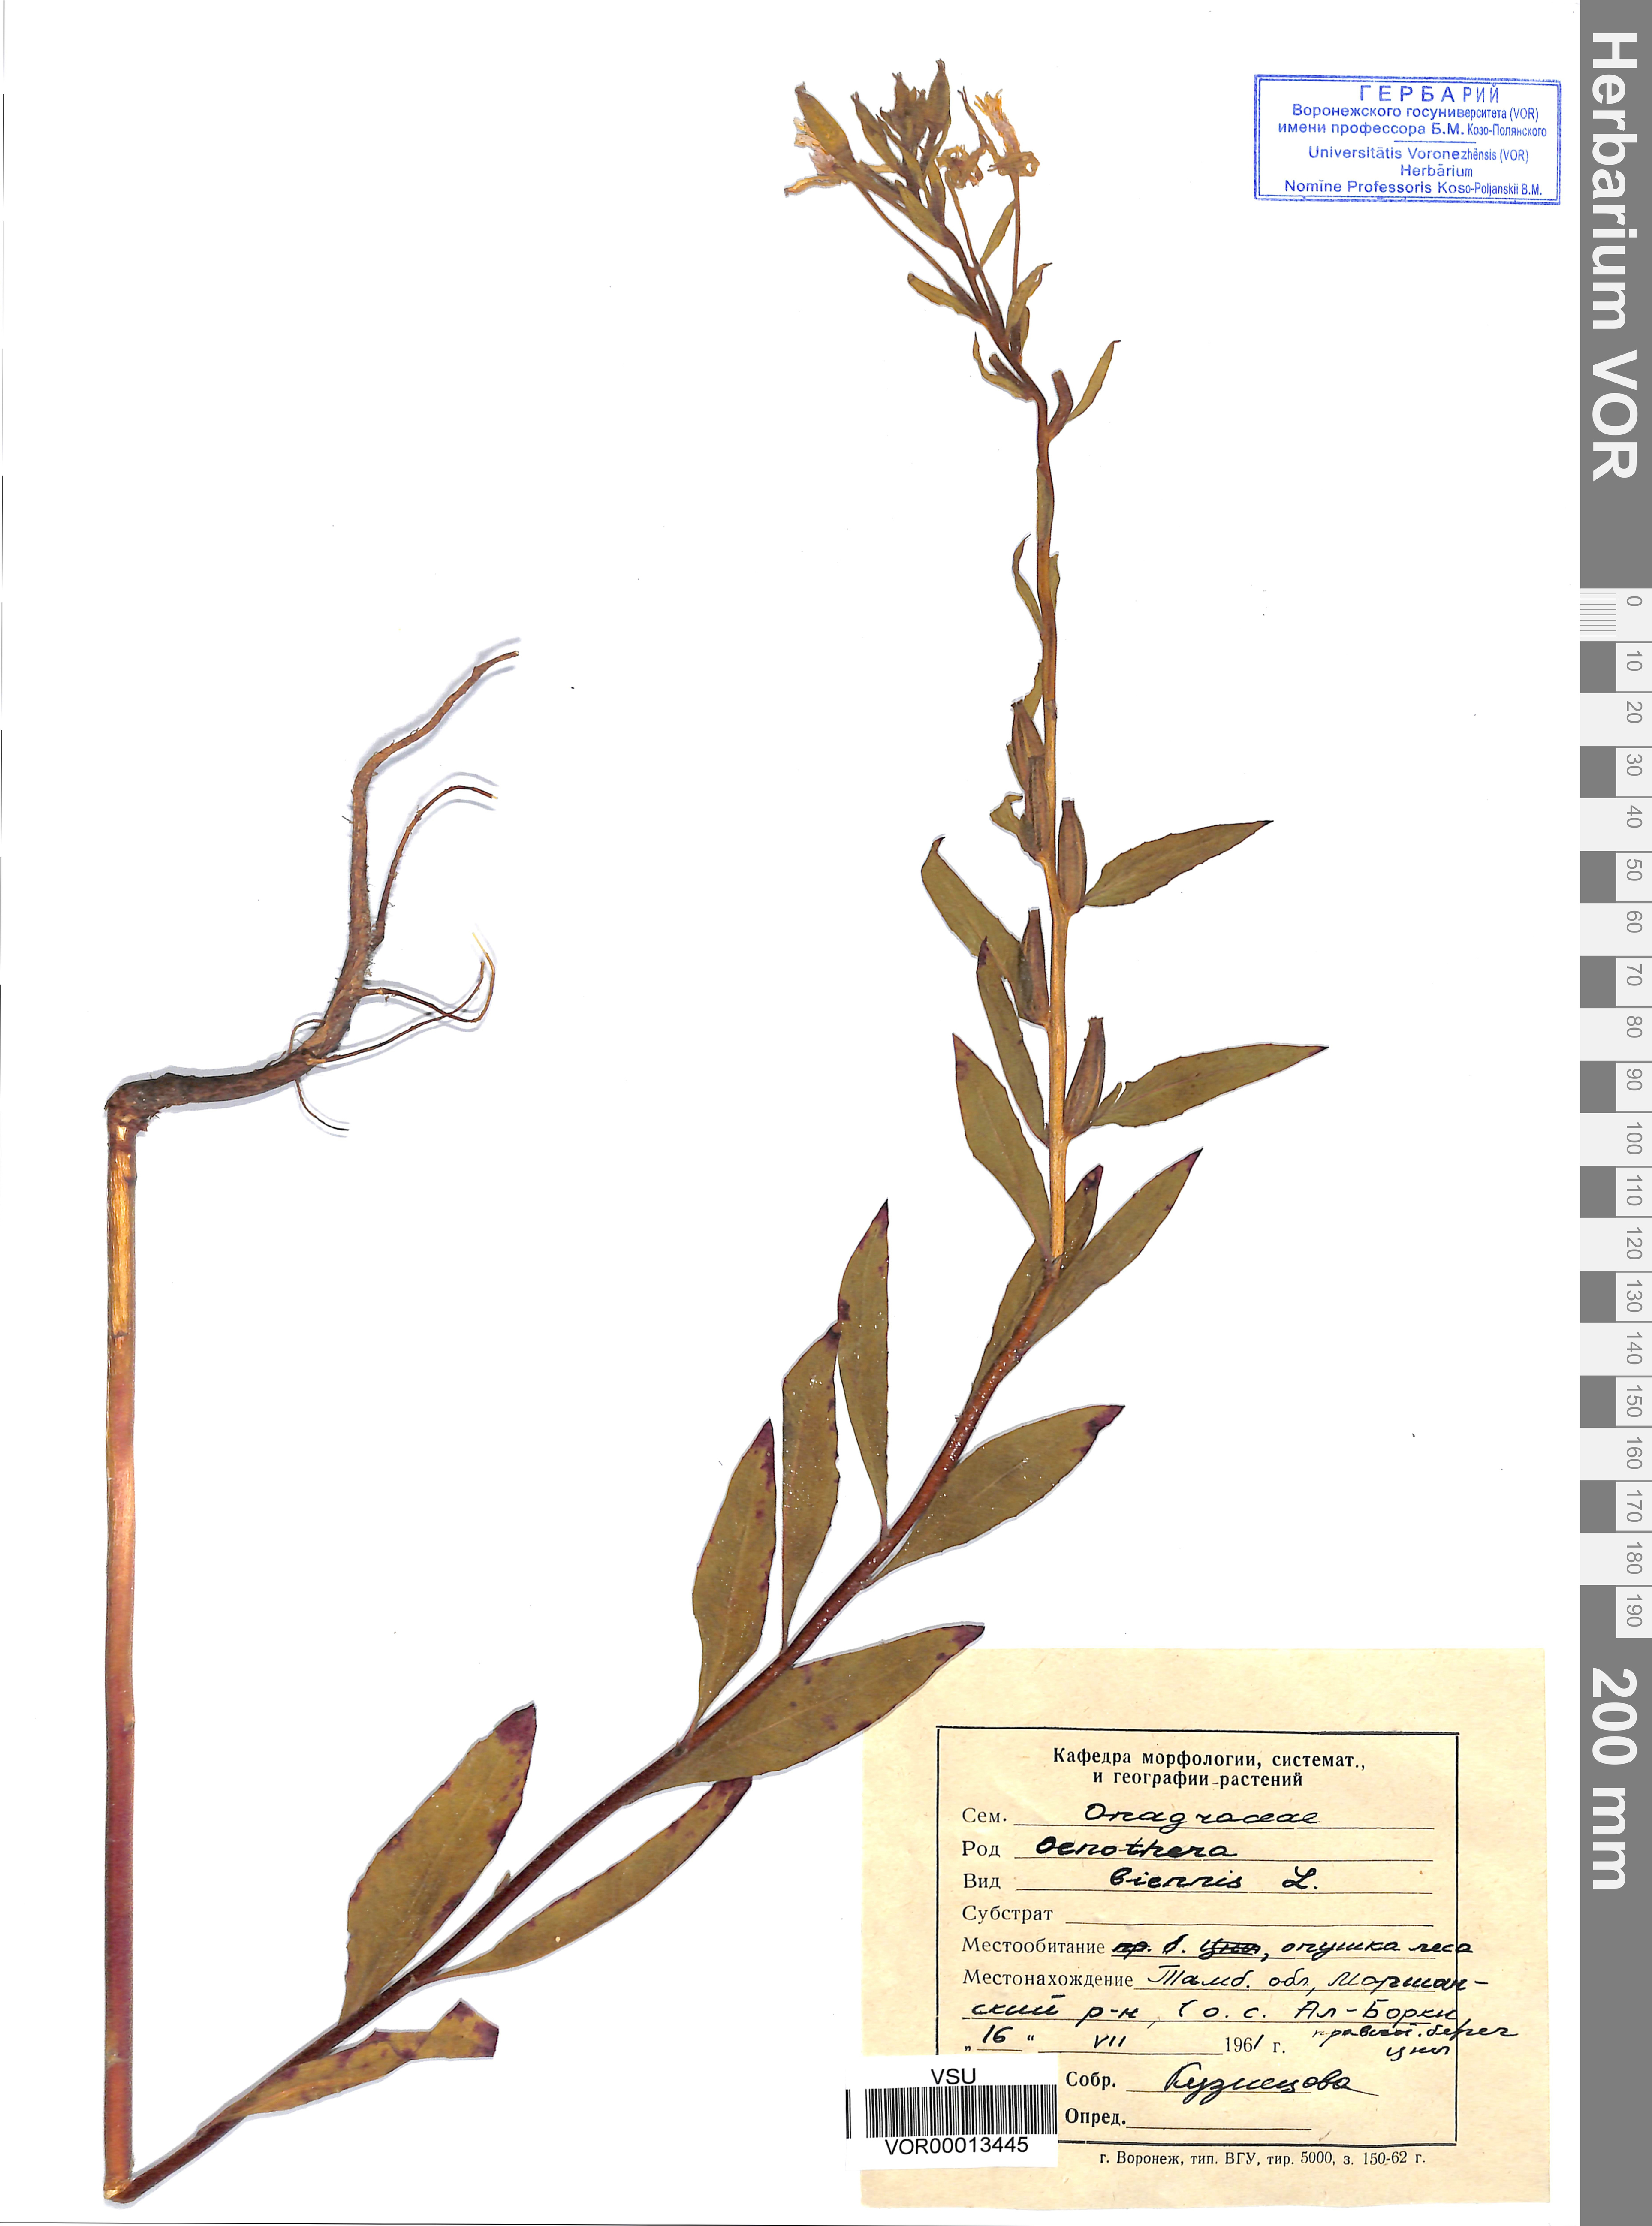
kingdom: Plantae
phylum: Tracheophyta
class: Magnoliopsida
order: Myrtales
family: Onagraceae
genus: Oenothera
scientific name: Oenothera biennis
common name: Common evening-primrose
